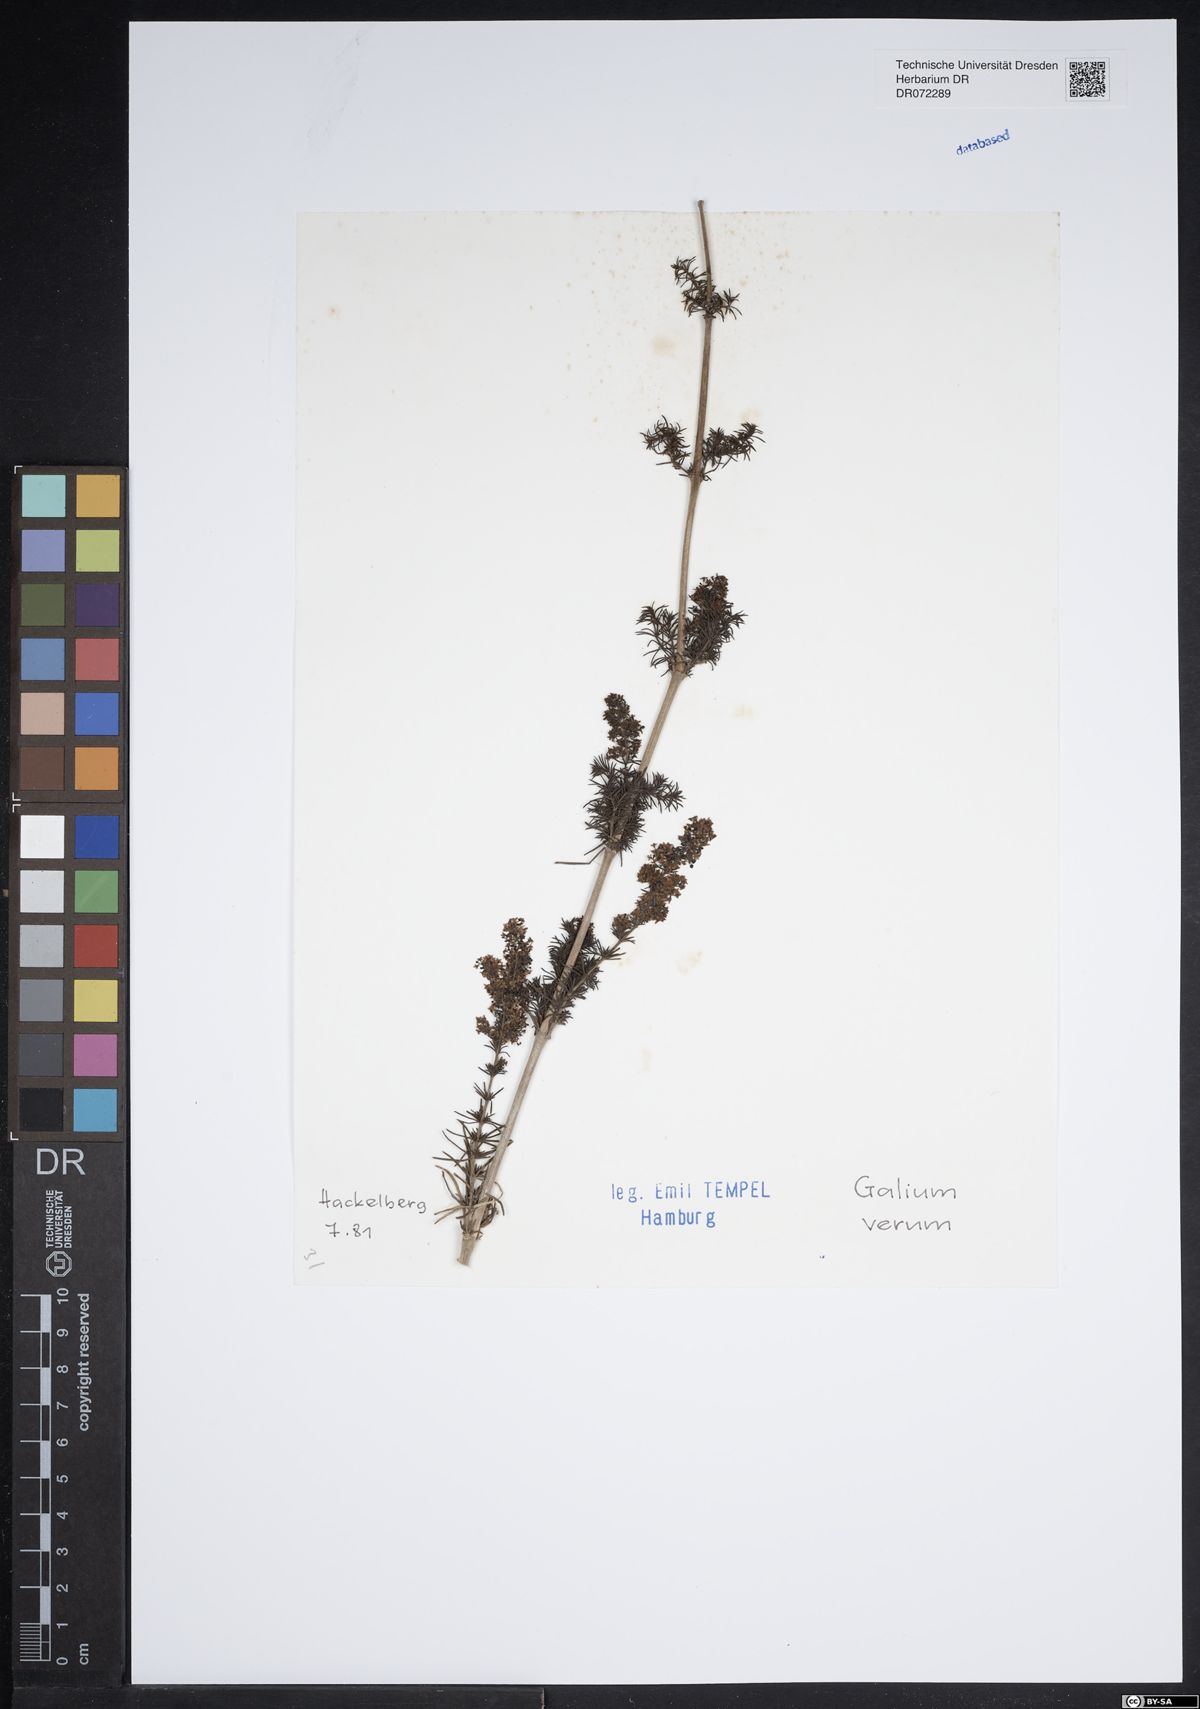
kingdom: Plantae
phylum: Tracheophyta
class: Magnoliopsida
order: Gentianales
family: Rubiaceae
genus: Galium
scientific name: Galium verum
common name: Lady's bedstraw
